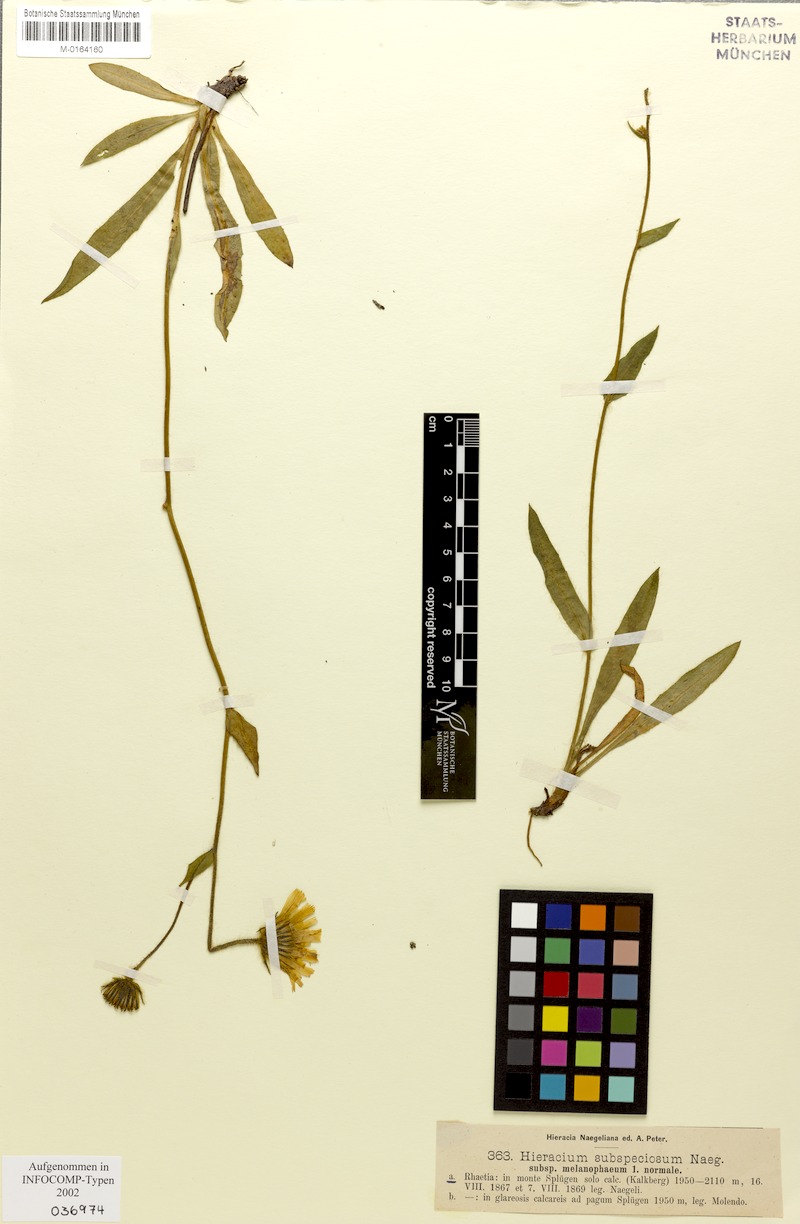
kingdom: Plantae
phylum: Tracheophyta
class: Magnoliopsida
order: Asterales
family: Asteraceae
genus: Hieracium
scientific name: Hieracium subspeciosum
